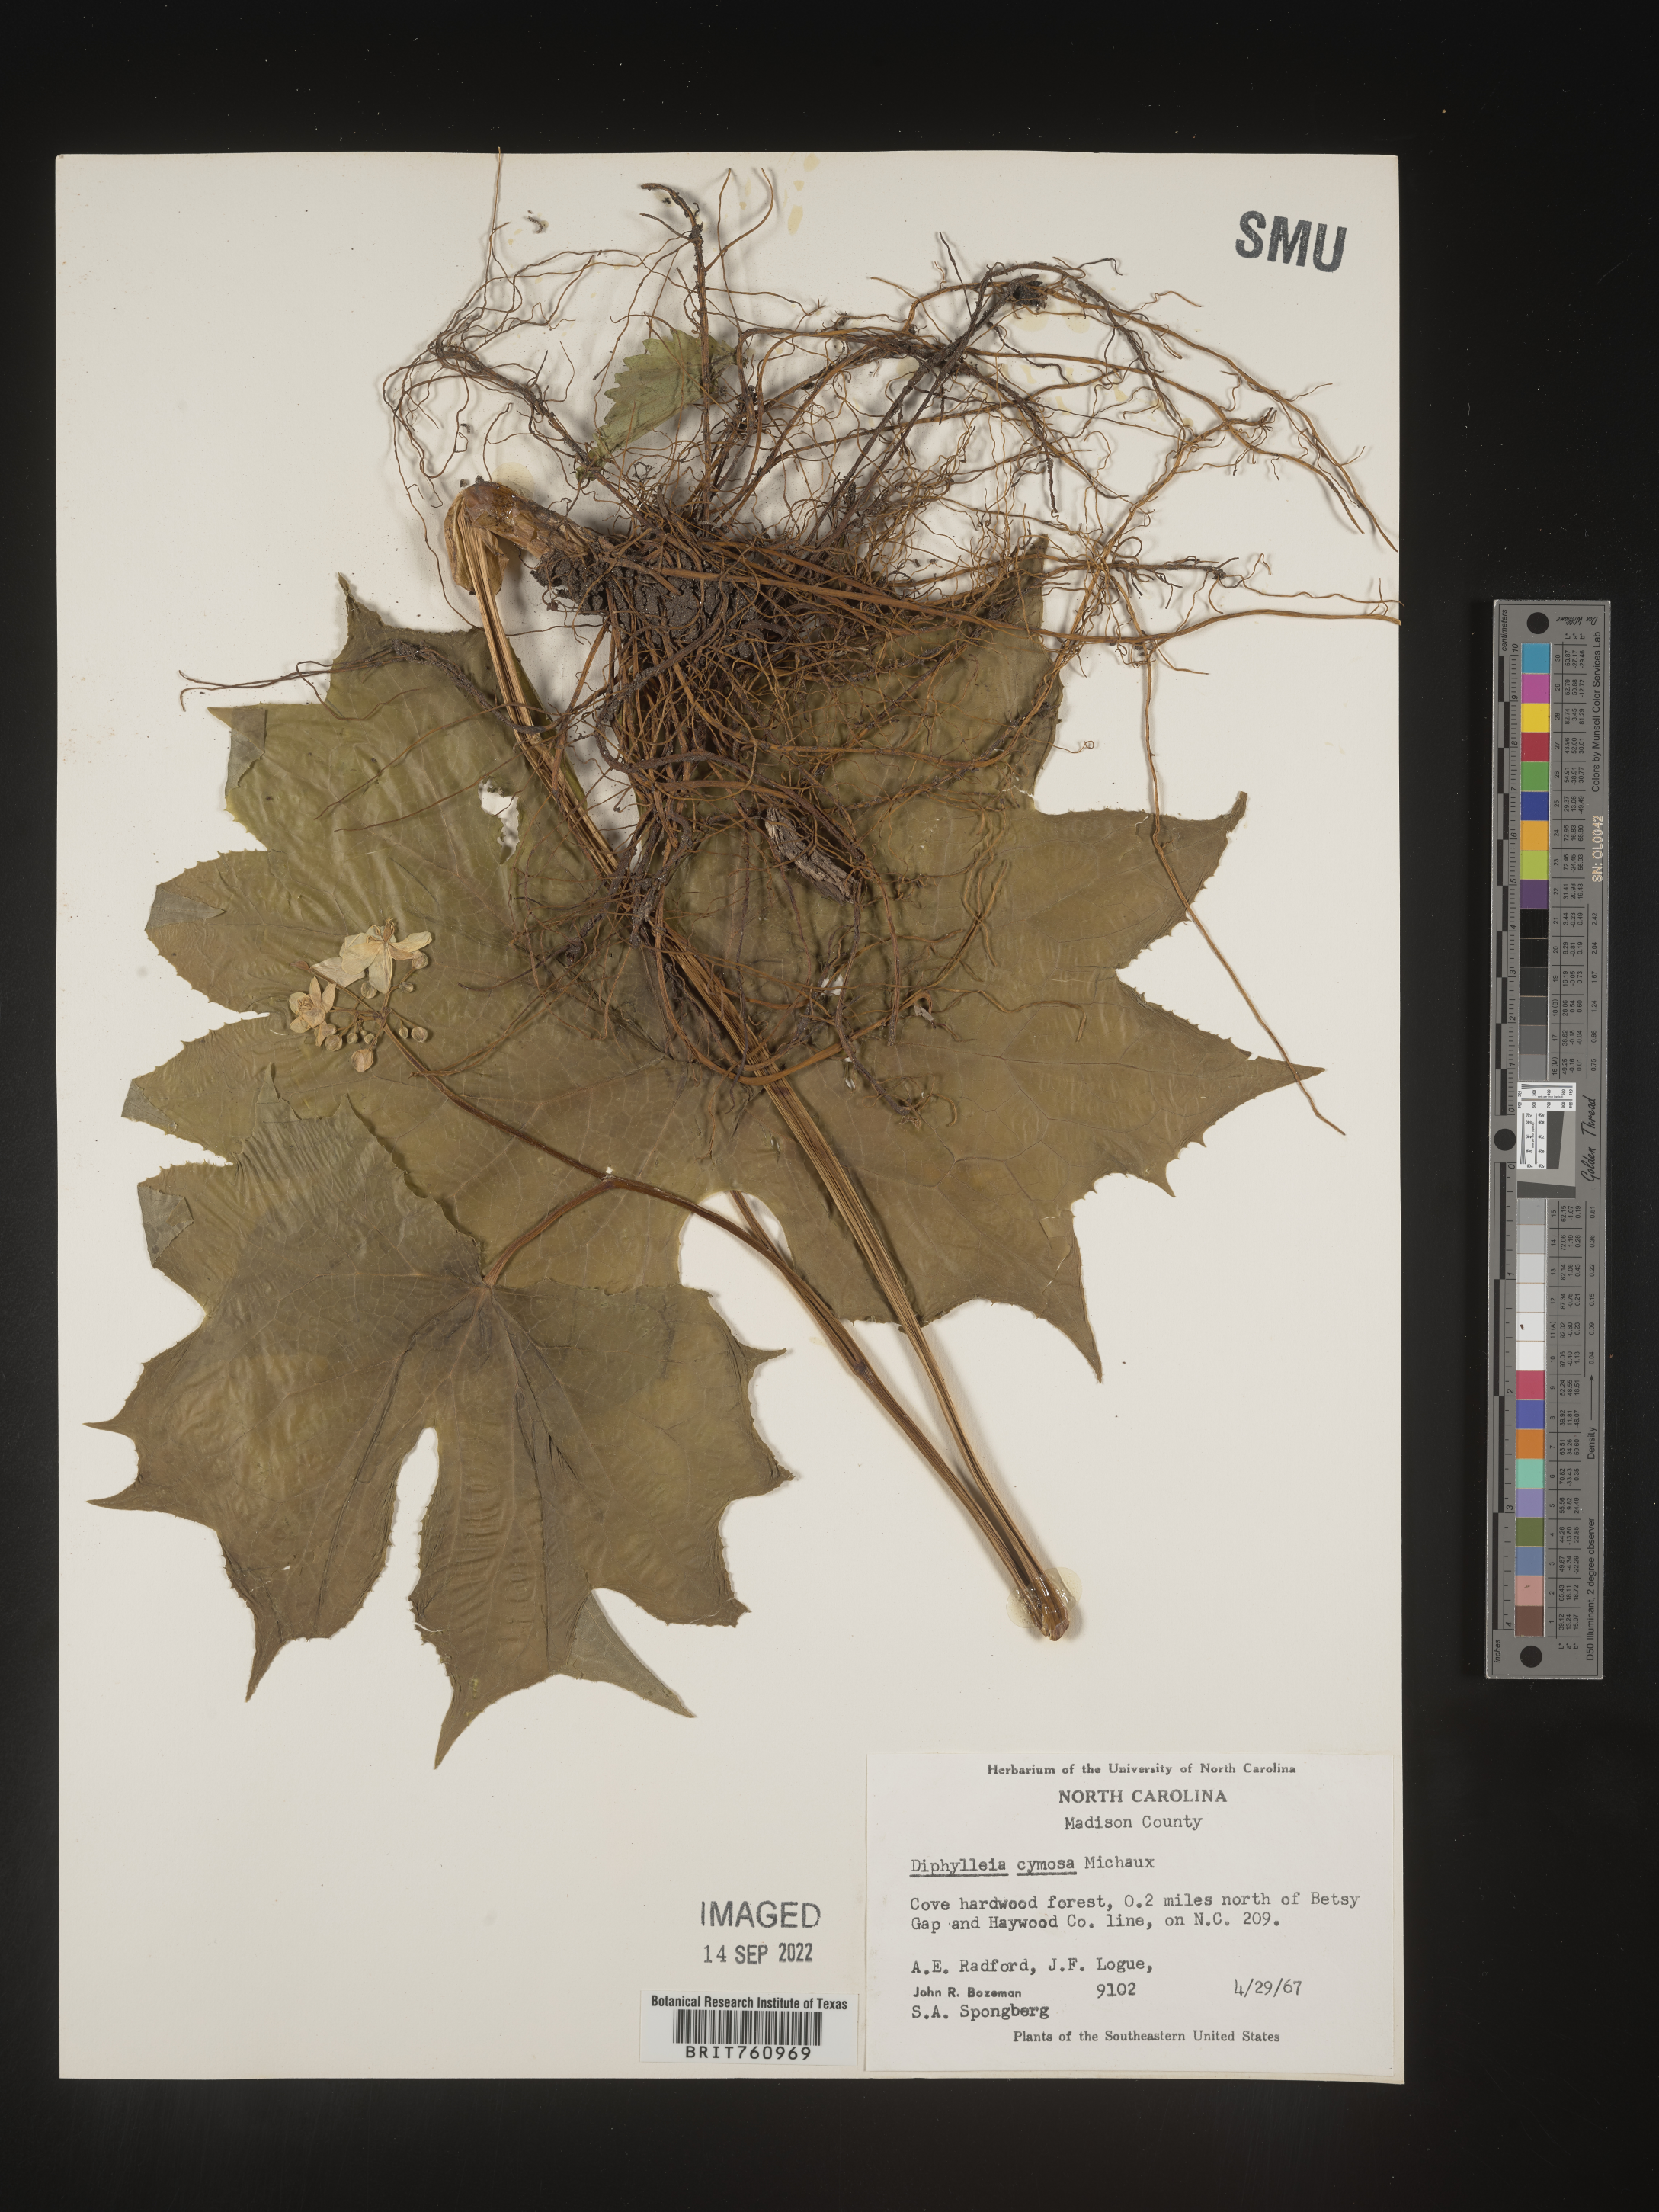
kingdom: Plantae
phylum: Tracheophyta
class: Magnoliopsida
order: Ranunculales
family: Berberidaceae
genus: Diphylleia
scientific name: Diphylleia
